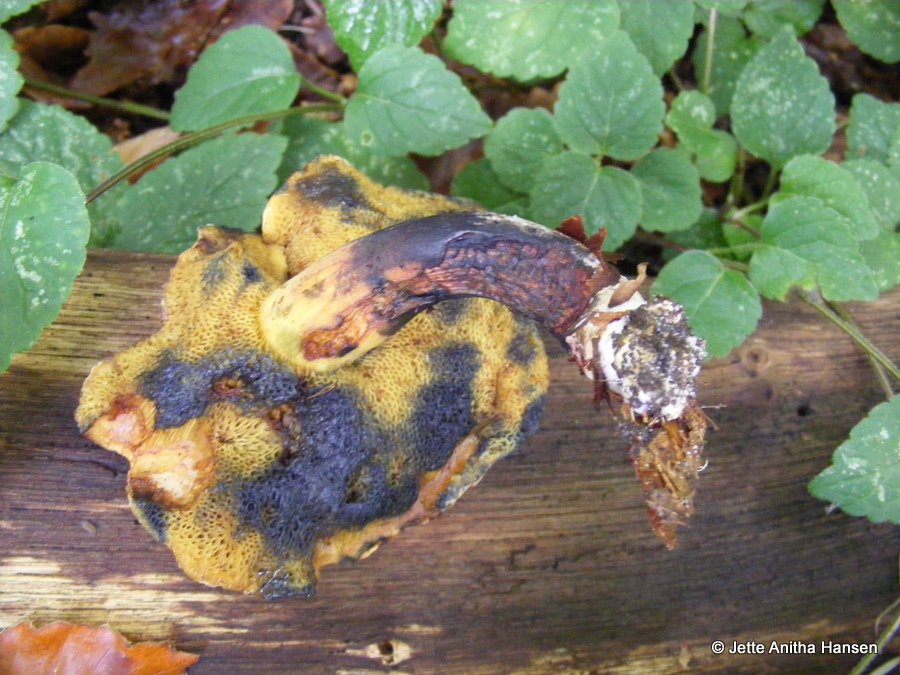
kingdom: Fungi
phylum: Basidiomycota
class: Agaricomycetes
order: Boletales
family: Boletaceae
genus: Cyanoboletus
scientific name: Cyanoboletus pulverulentus
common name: sortblånende rørhat
